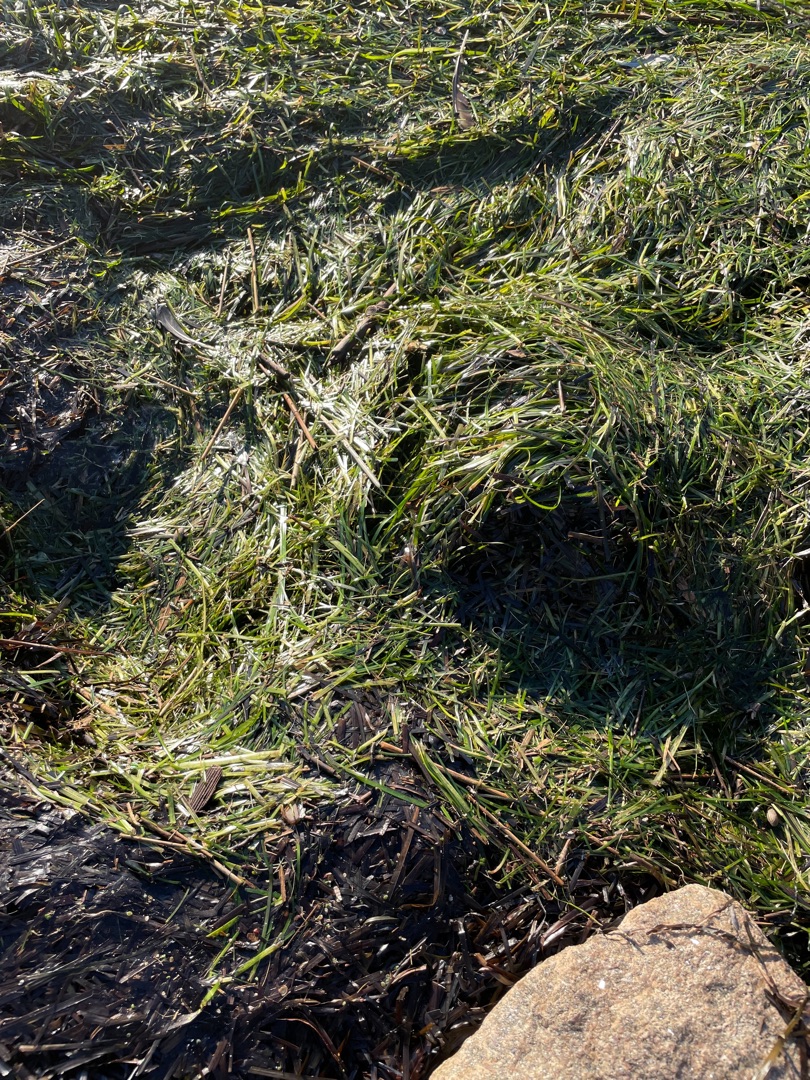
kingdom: Plantae
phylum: Tracheophyta
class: Liliopsida
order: Alismatales
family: Zosteraceae
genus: Zostera
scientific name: Zostera marina
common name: Almindelig bændeltang
